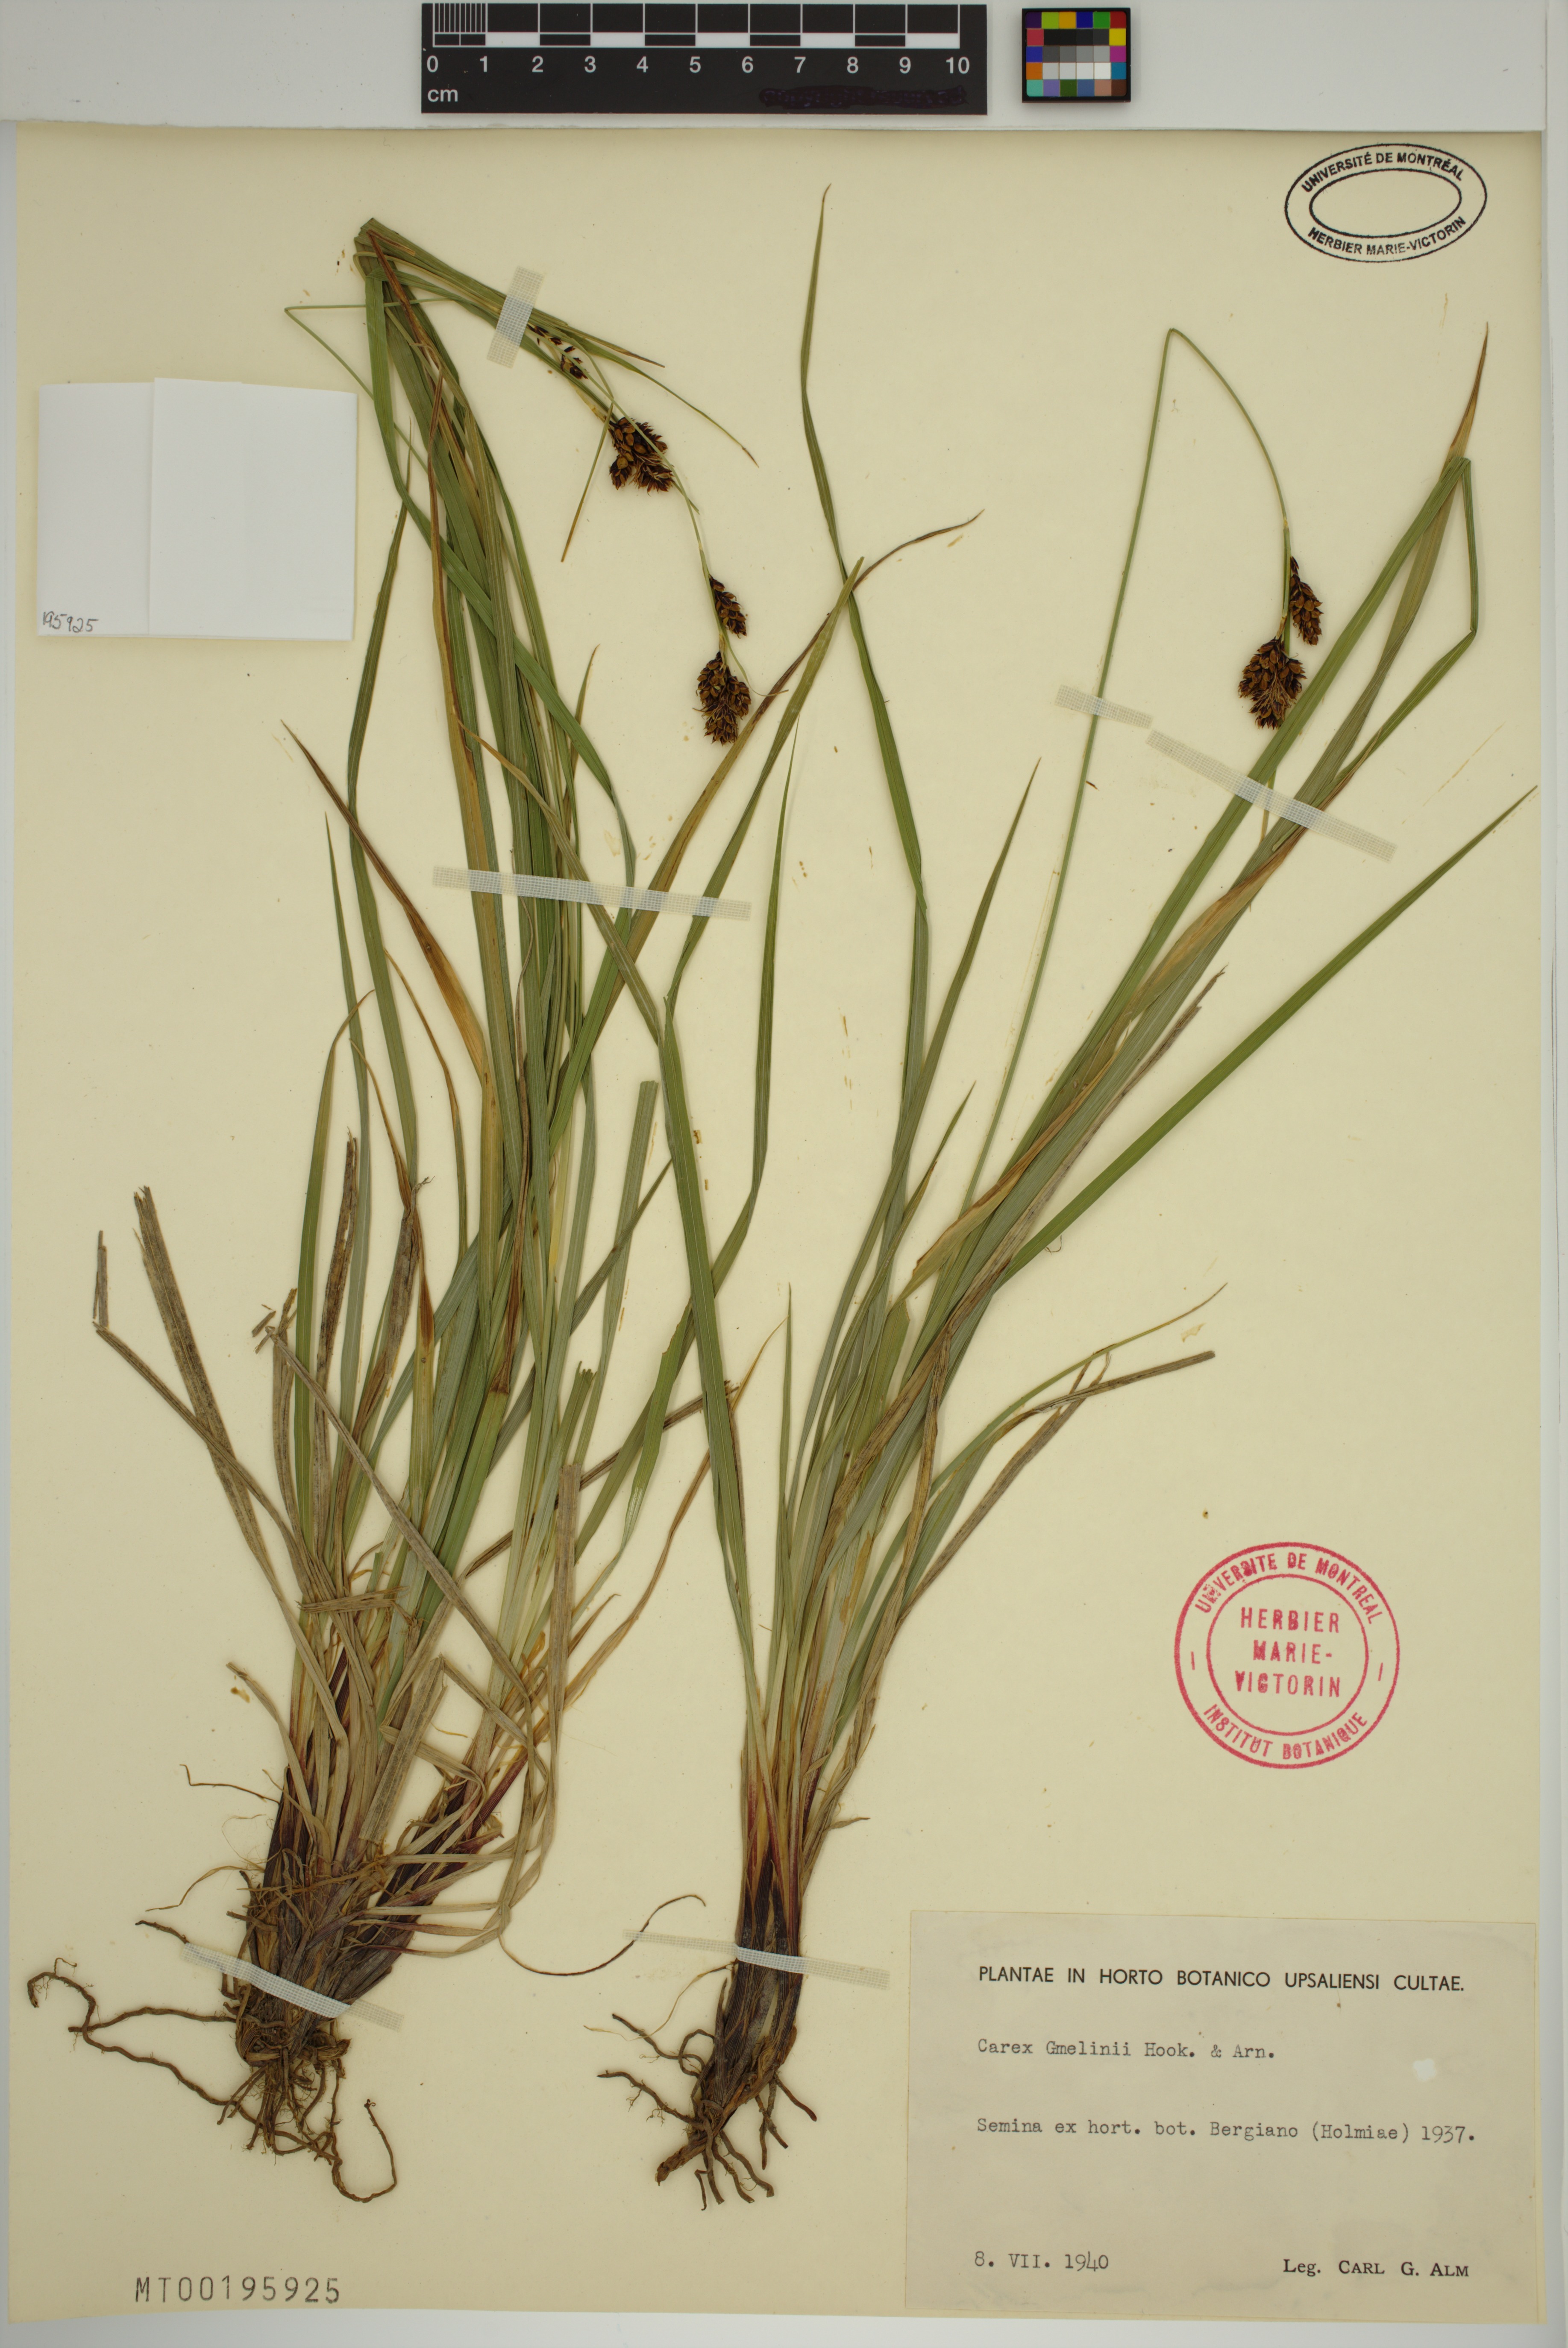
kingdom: Plantae
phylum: Tracheophyta
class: Liliopsida
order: Poales
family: Cyperaceae
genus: Carex
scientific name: Carex gmelinii
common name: Gmelin's sedge
